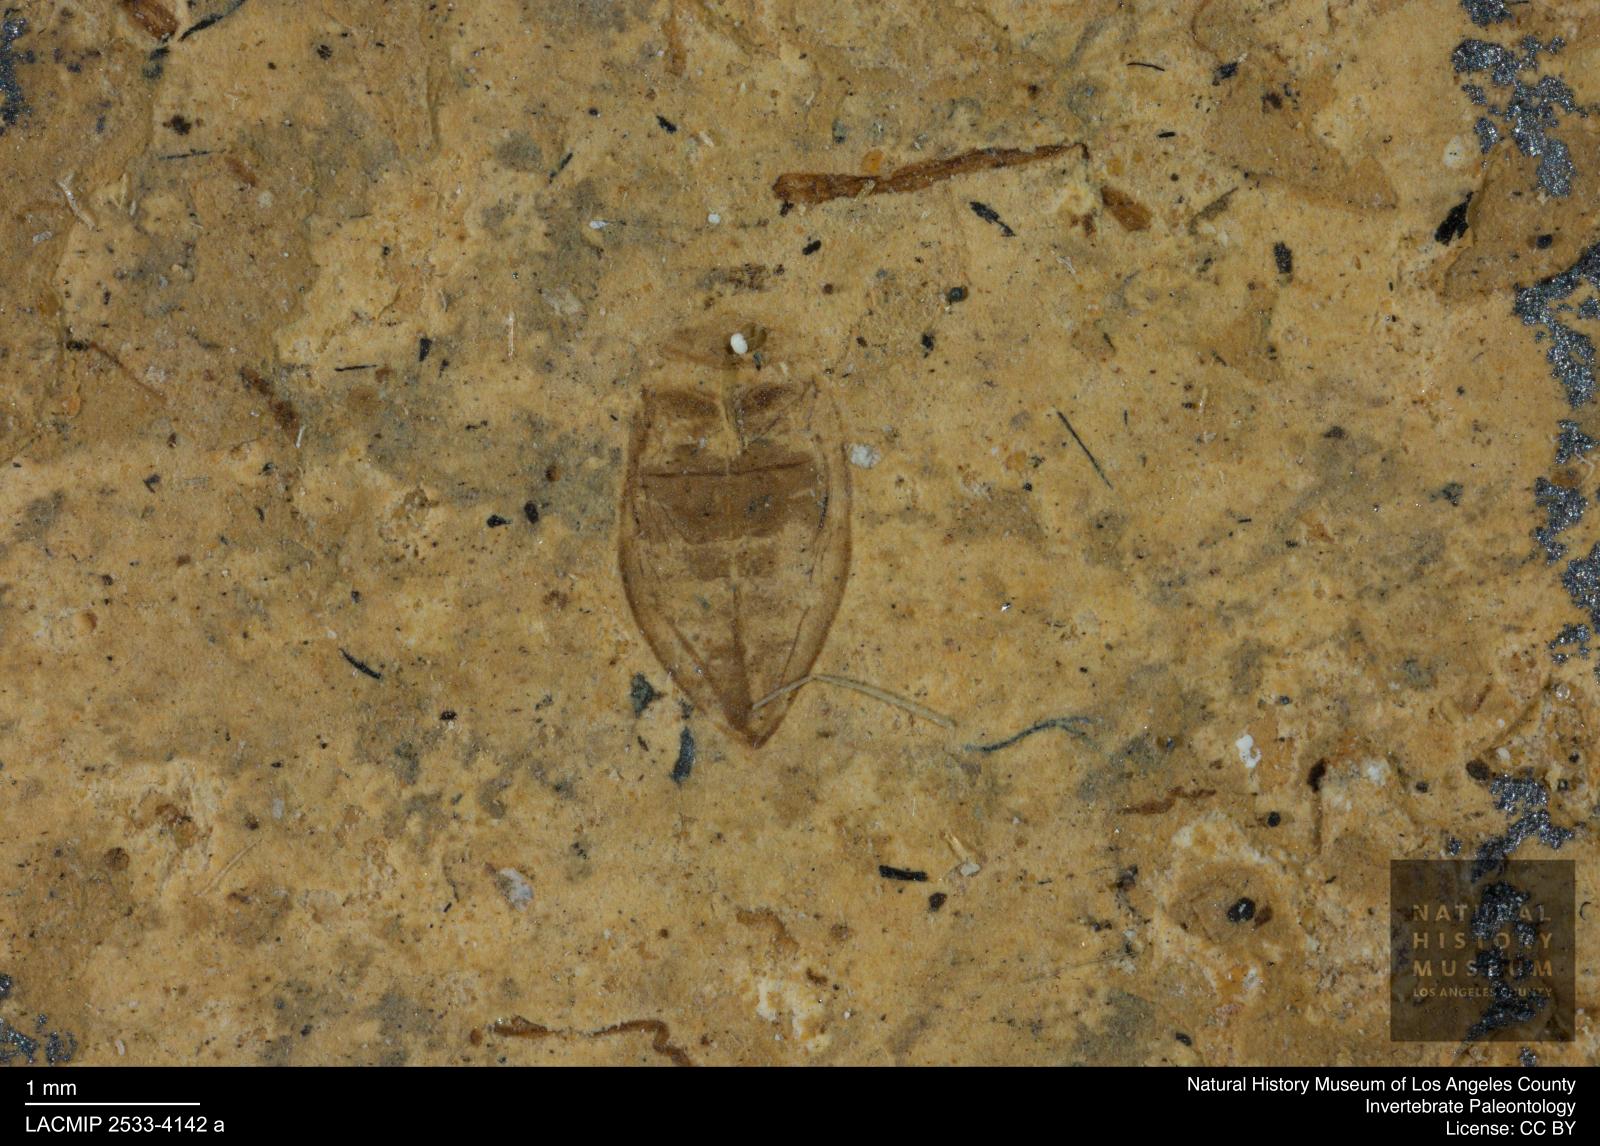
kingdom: Animalia
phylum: Arthropoda
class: Insecta
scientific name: Insecta
